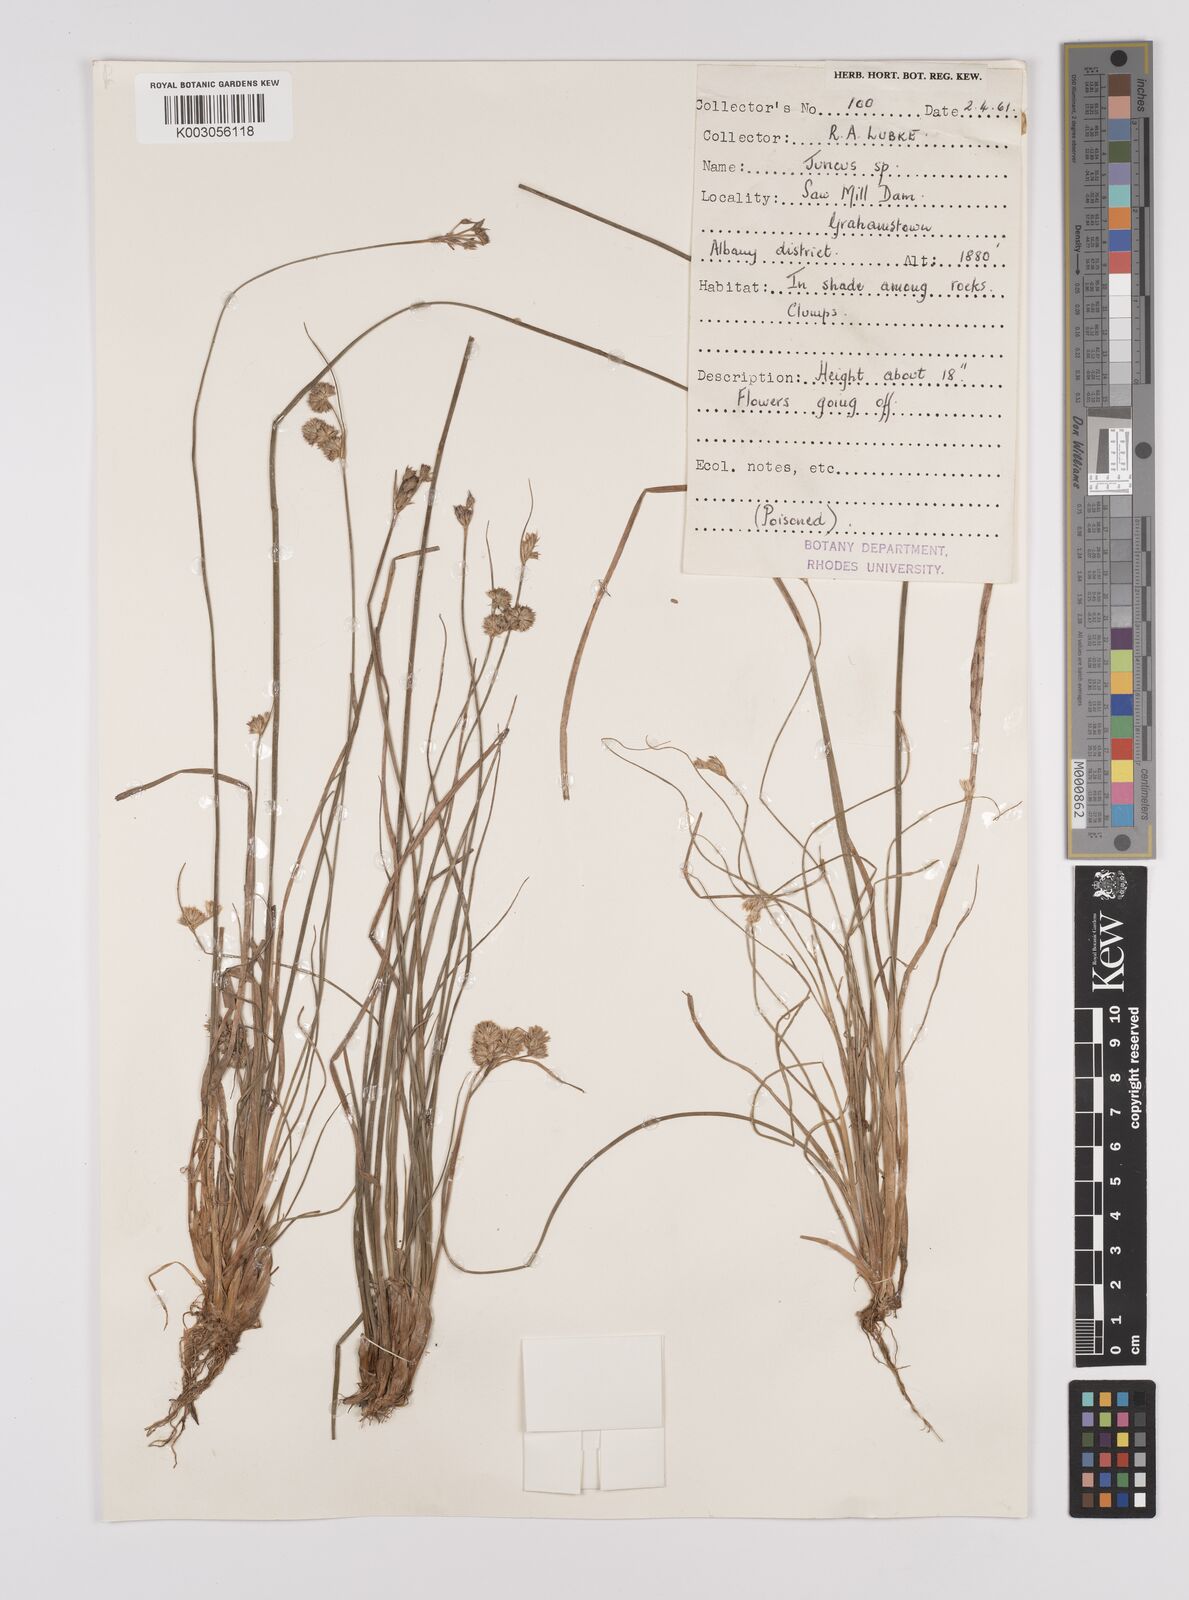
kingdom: Plantae
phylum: Tracheophyta
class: Liliopsida
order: Poales
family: Juncaceae
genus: Juncus
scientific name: Juncus
